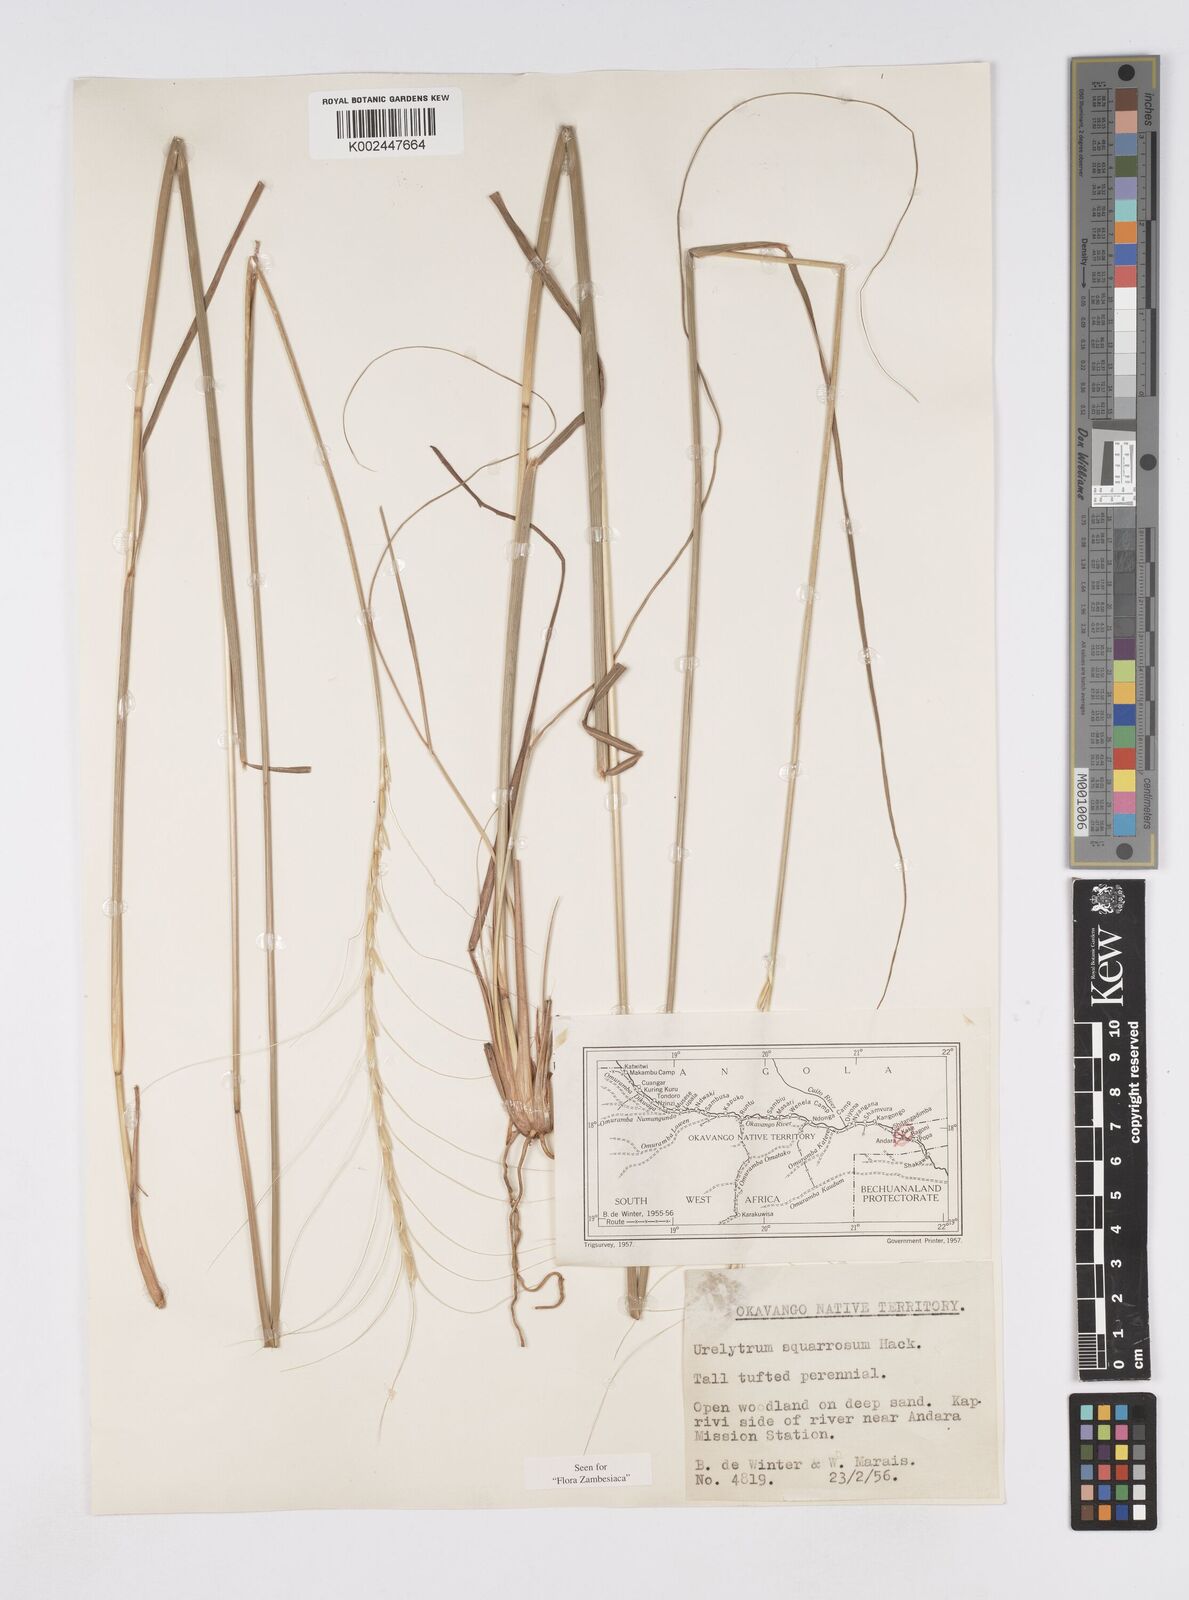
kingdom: Plantae
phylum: Tracheophyta
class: Liliopsida
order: Poales
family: Poaceae
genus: Urelytrum
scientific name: Urelytrum agropyroides
